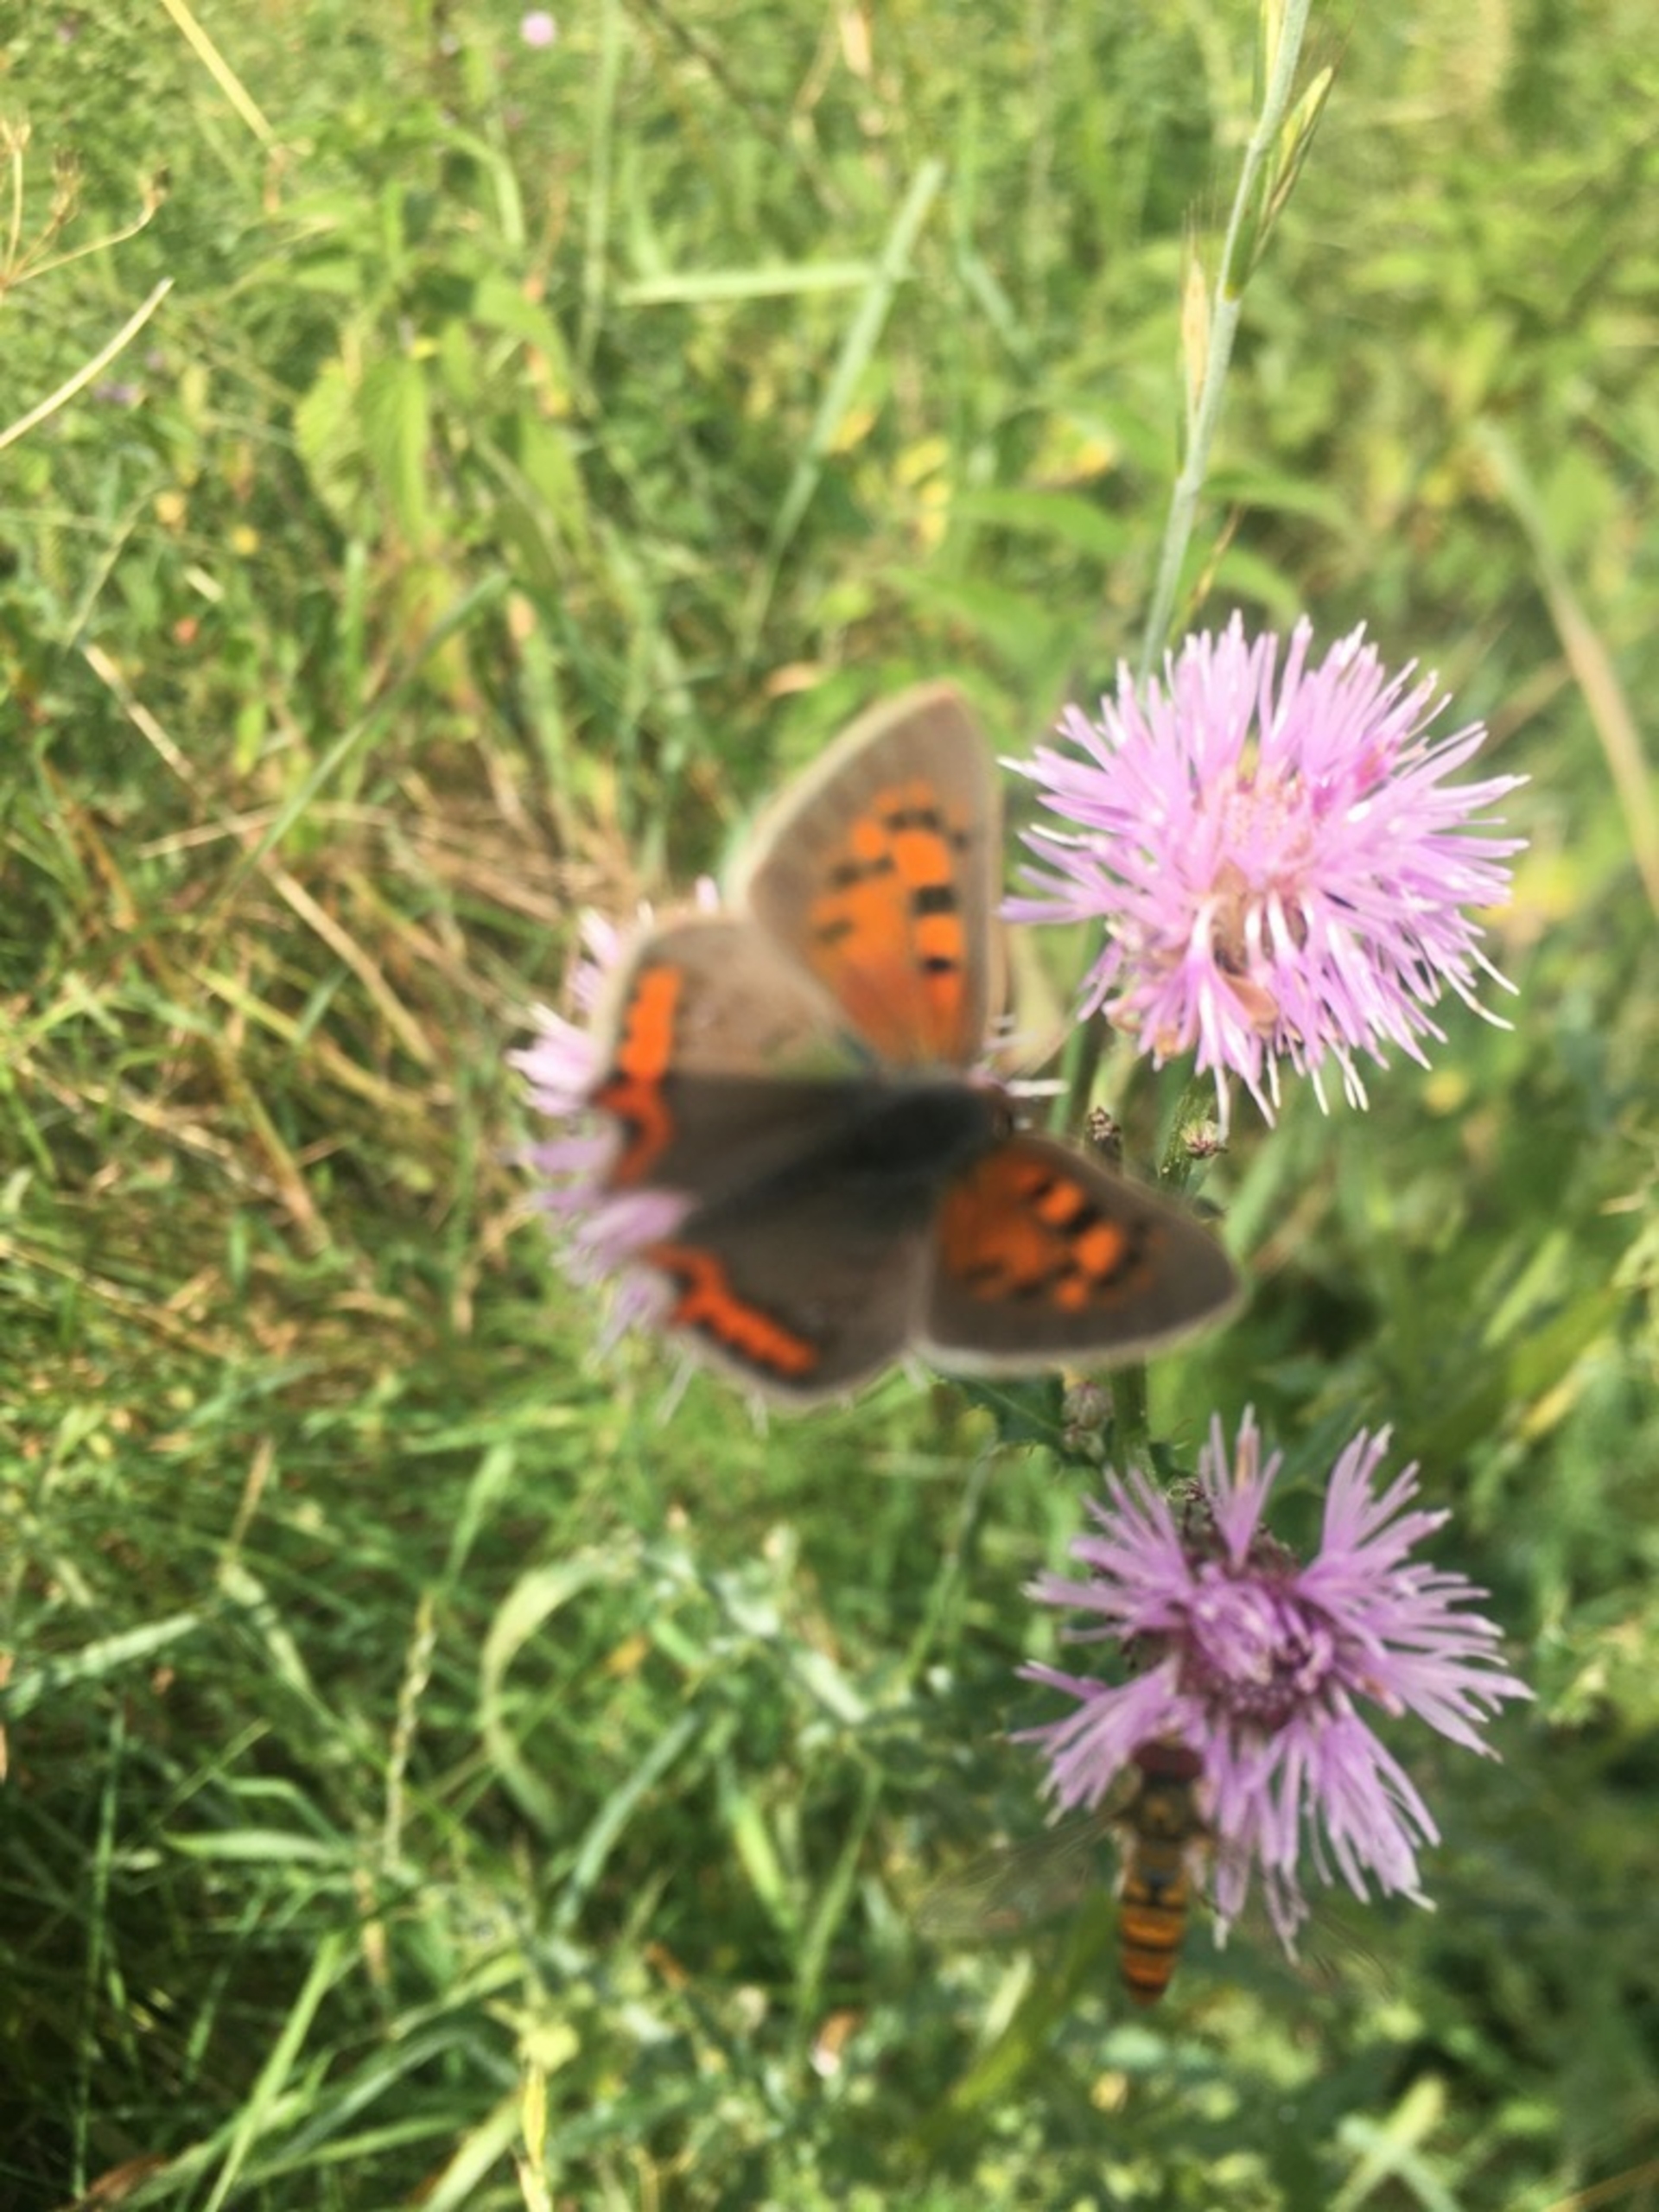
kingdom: Animalia
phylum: Arthropoda
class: Insecta
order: Lepidoptera
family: Lycaenidae
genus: Lycaena
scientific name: Lycaena phlaeas
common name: Lille ildfugl
